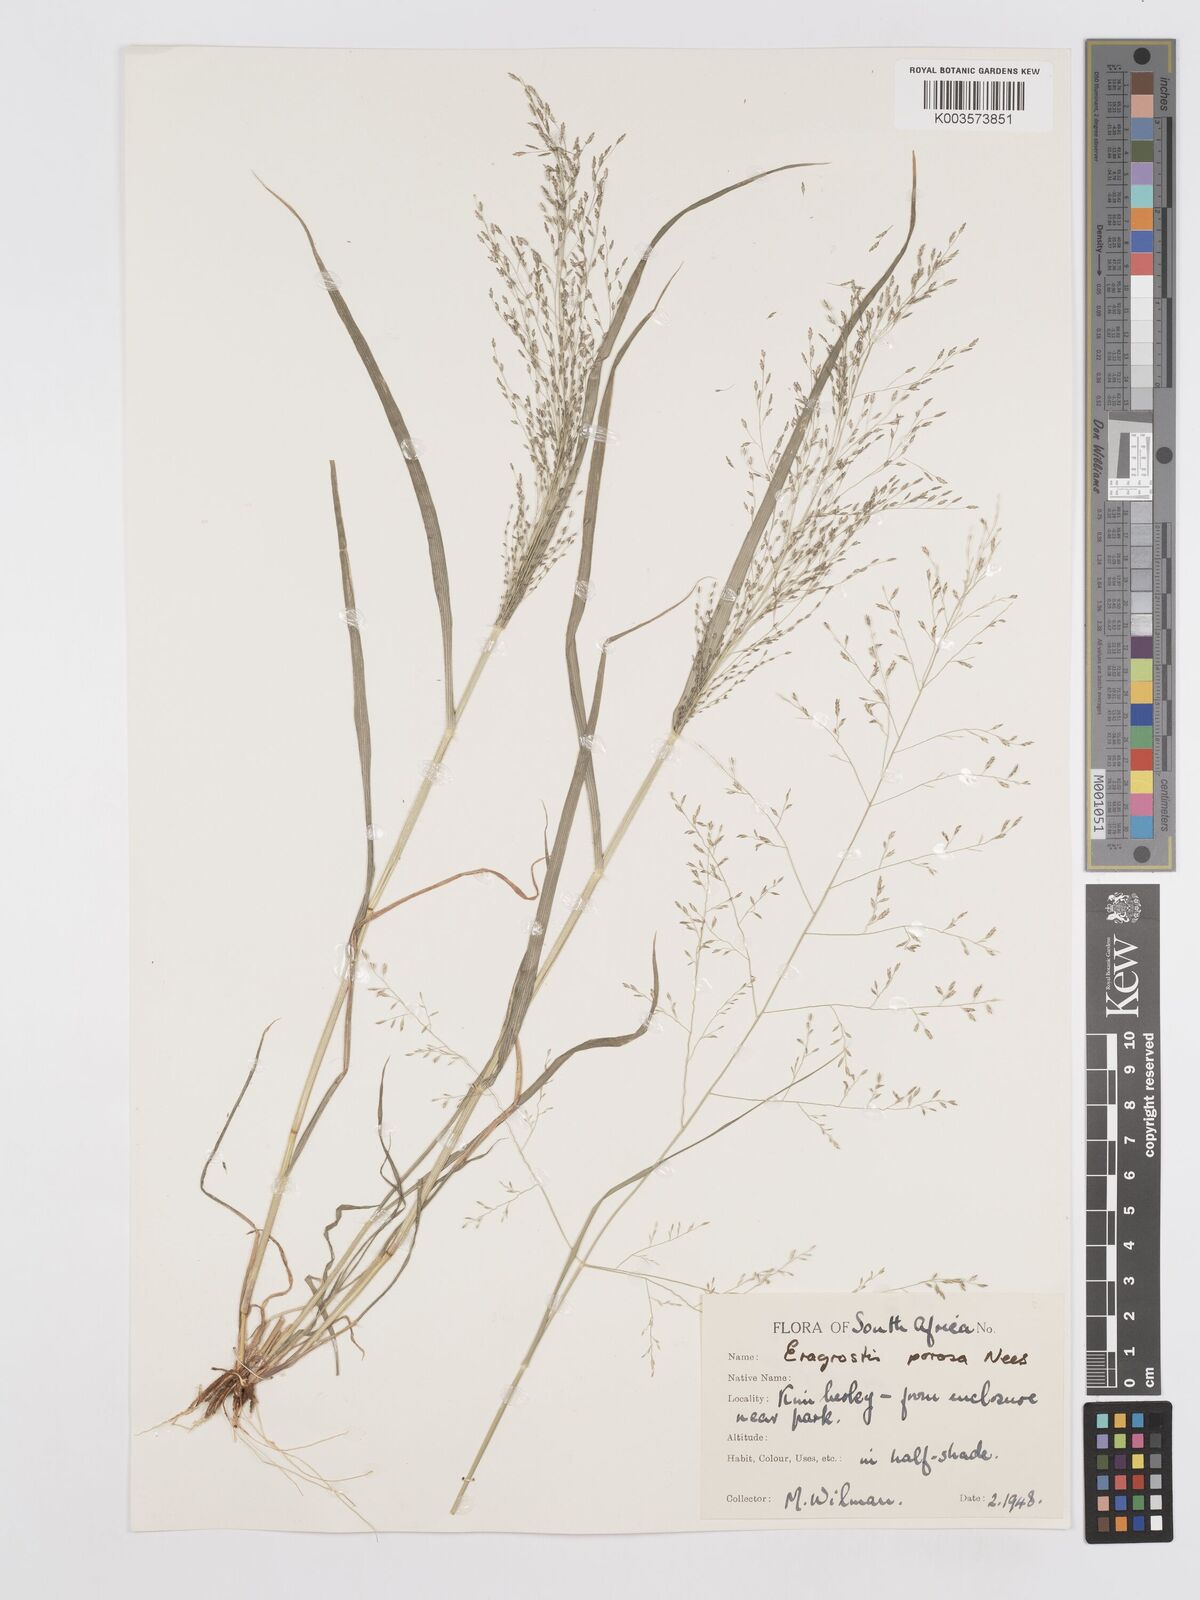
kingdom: Plantae
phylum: Tracheophyta
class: Liliopsida
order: Poales
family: Poaceae
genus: Eragrostis
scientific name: Eragrostis porosa
